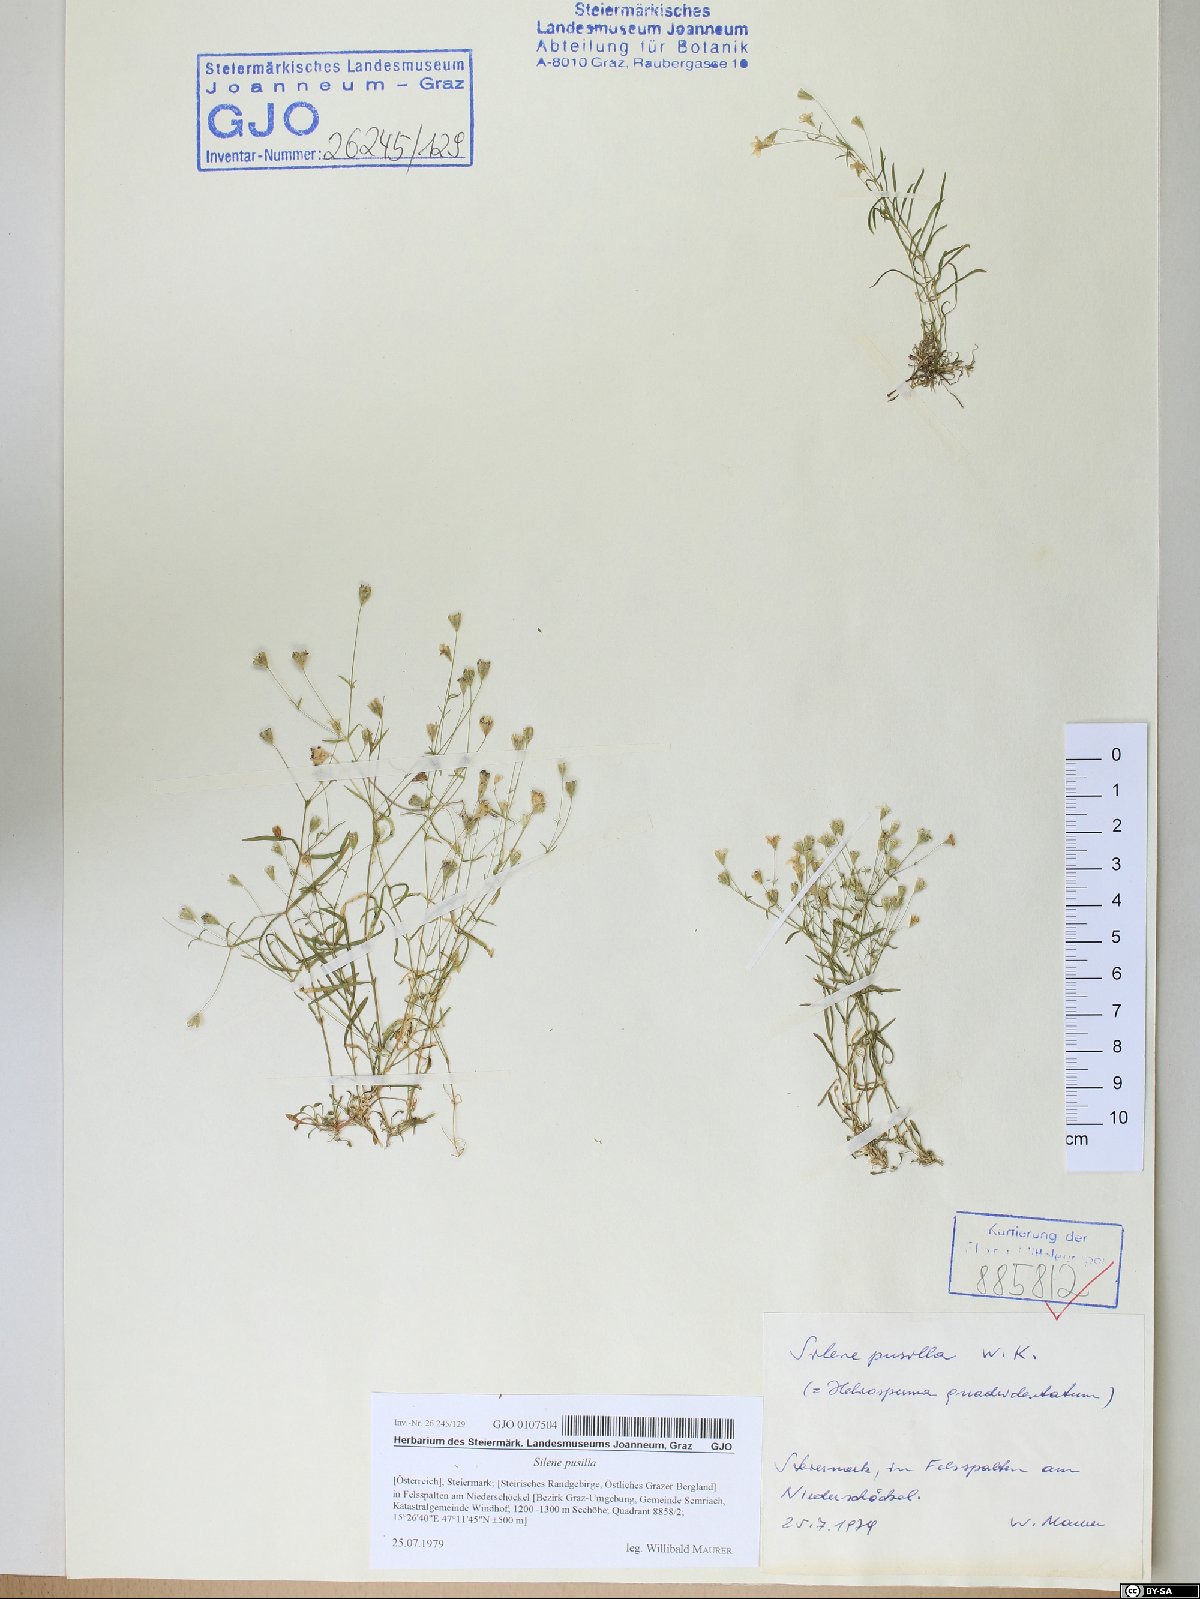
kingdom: Plantae
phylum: Tracheophyta
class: Magnoliopsida
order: Caryophyllales
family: Caryophyllaceae
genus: Heliosperma
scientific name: Heliosperma pusillum
